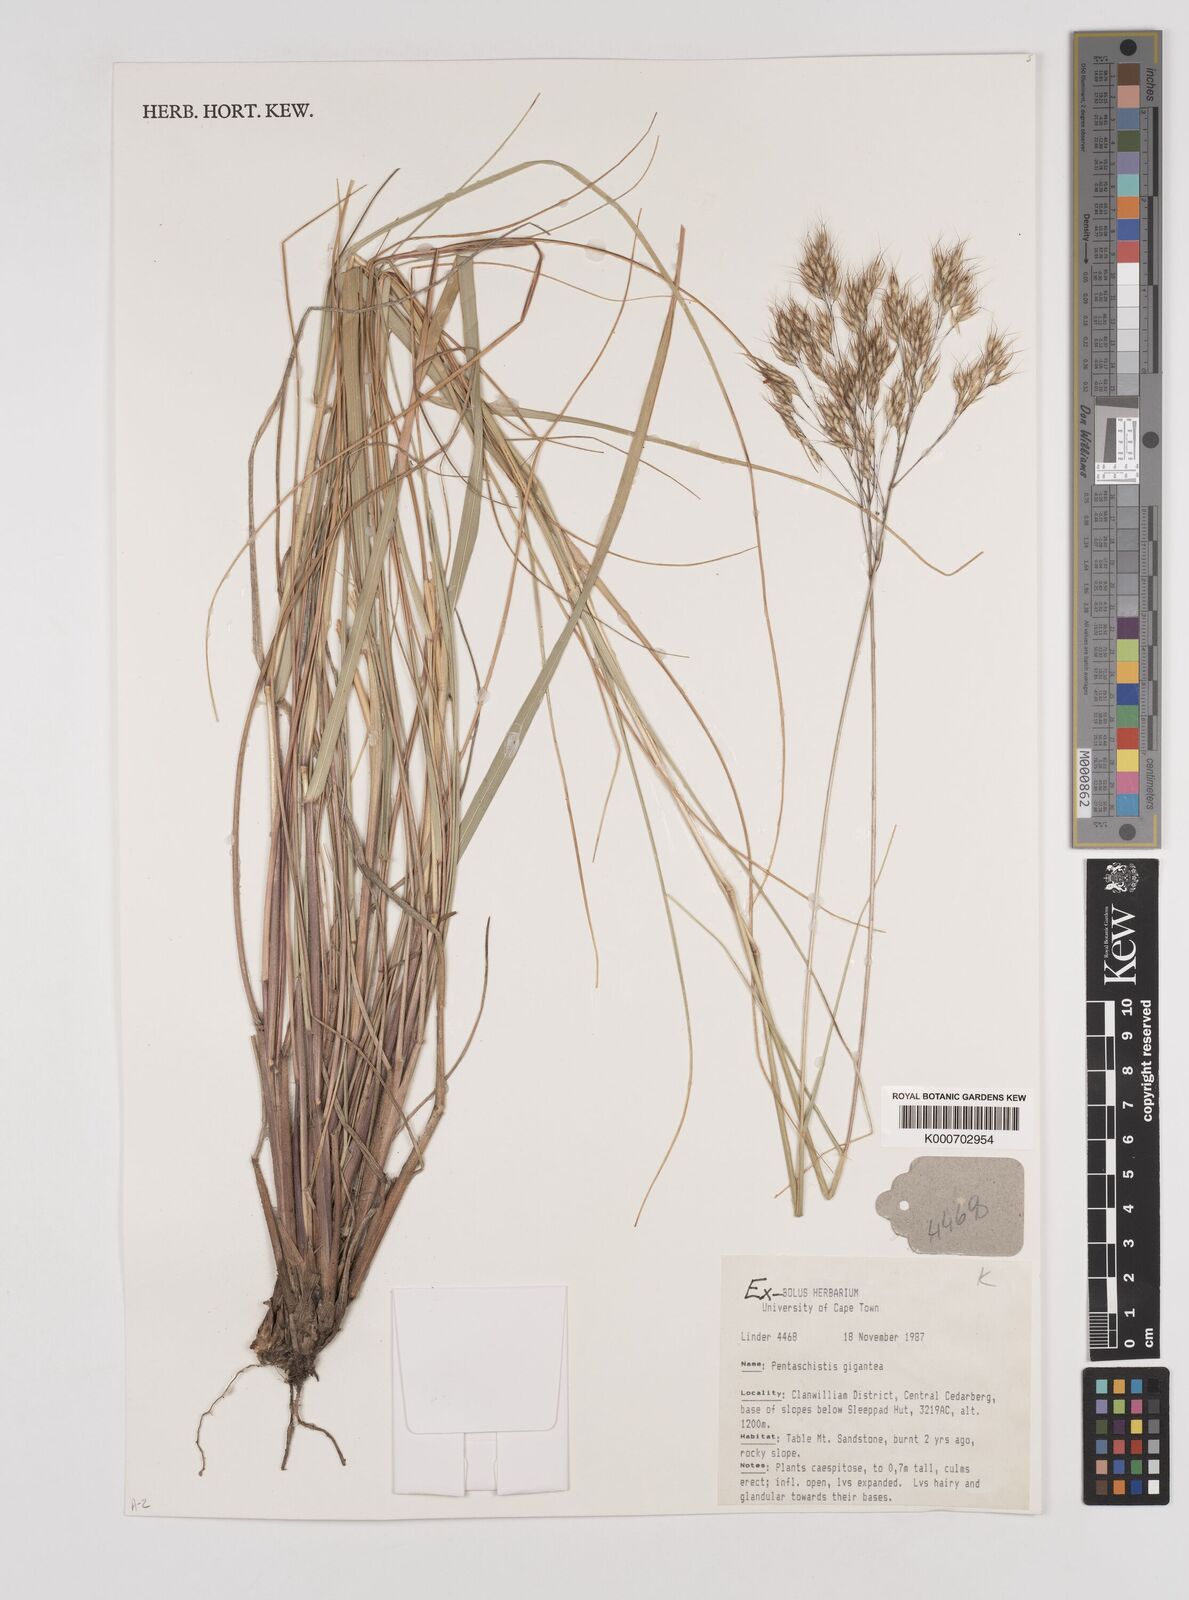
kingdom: Plantae
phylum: Tracheophyta
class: Liliopsida
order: Poales
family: Poaceae
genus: Pentameris
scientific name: Pentameris rupestris
